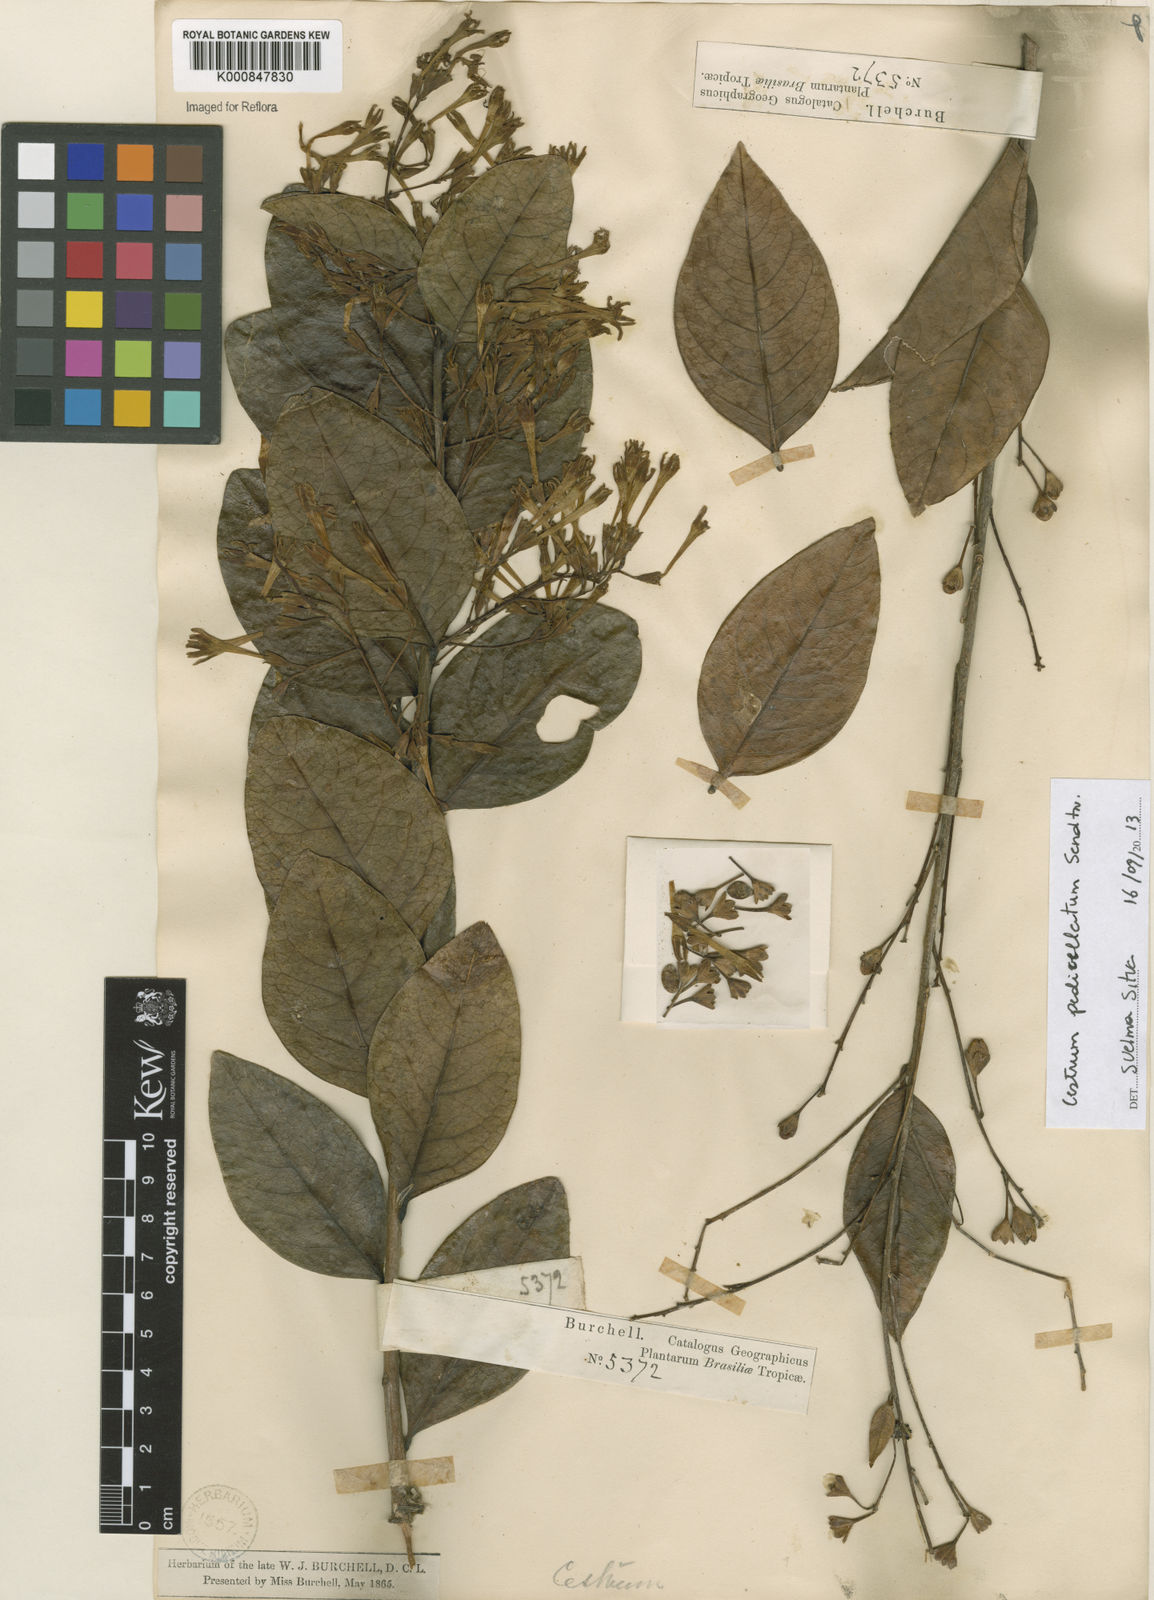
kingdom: Plantae
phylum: Tracheophyta
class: Magnoliopsida
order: Solanales
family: Solanaceae
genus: Cestrum
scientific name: Cestrum pedicellatum
